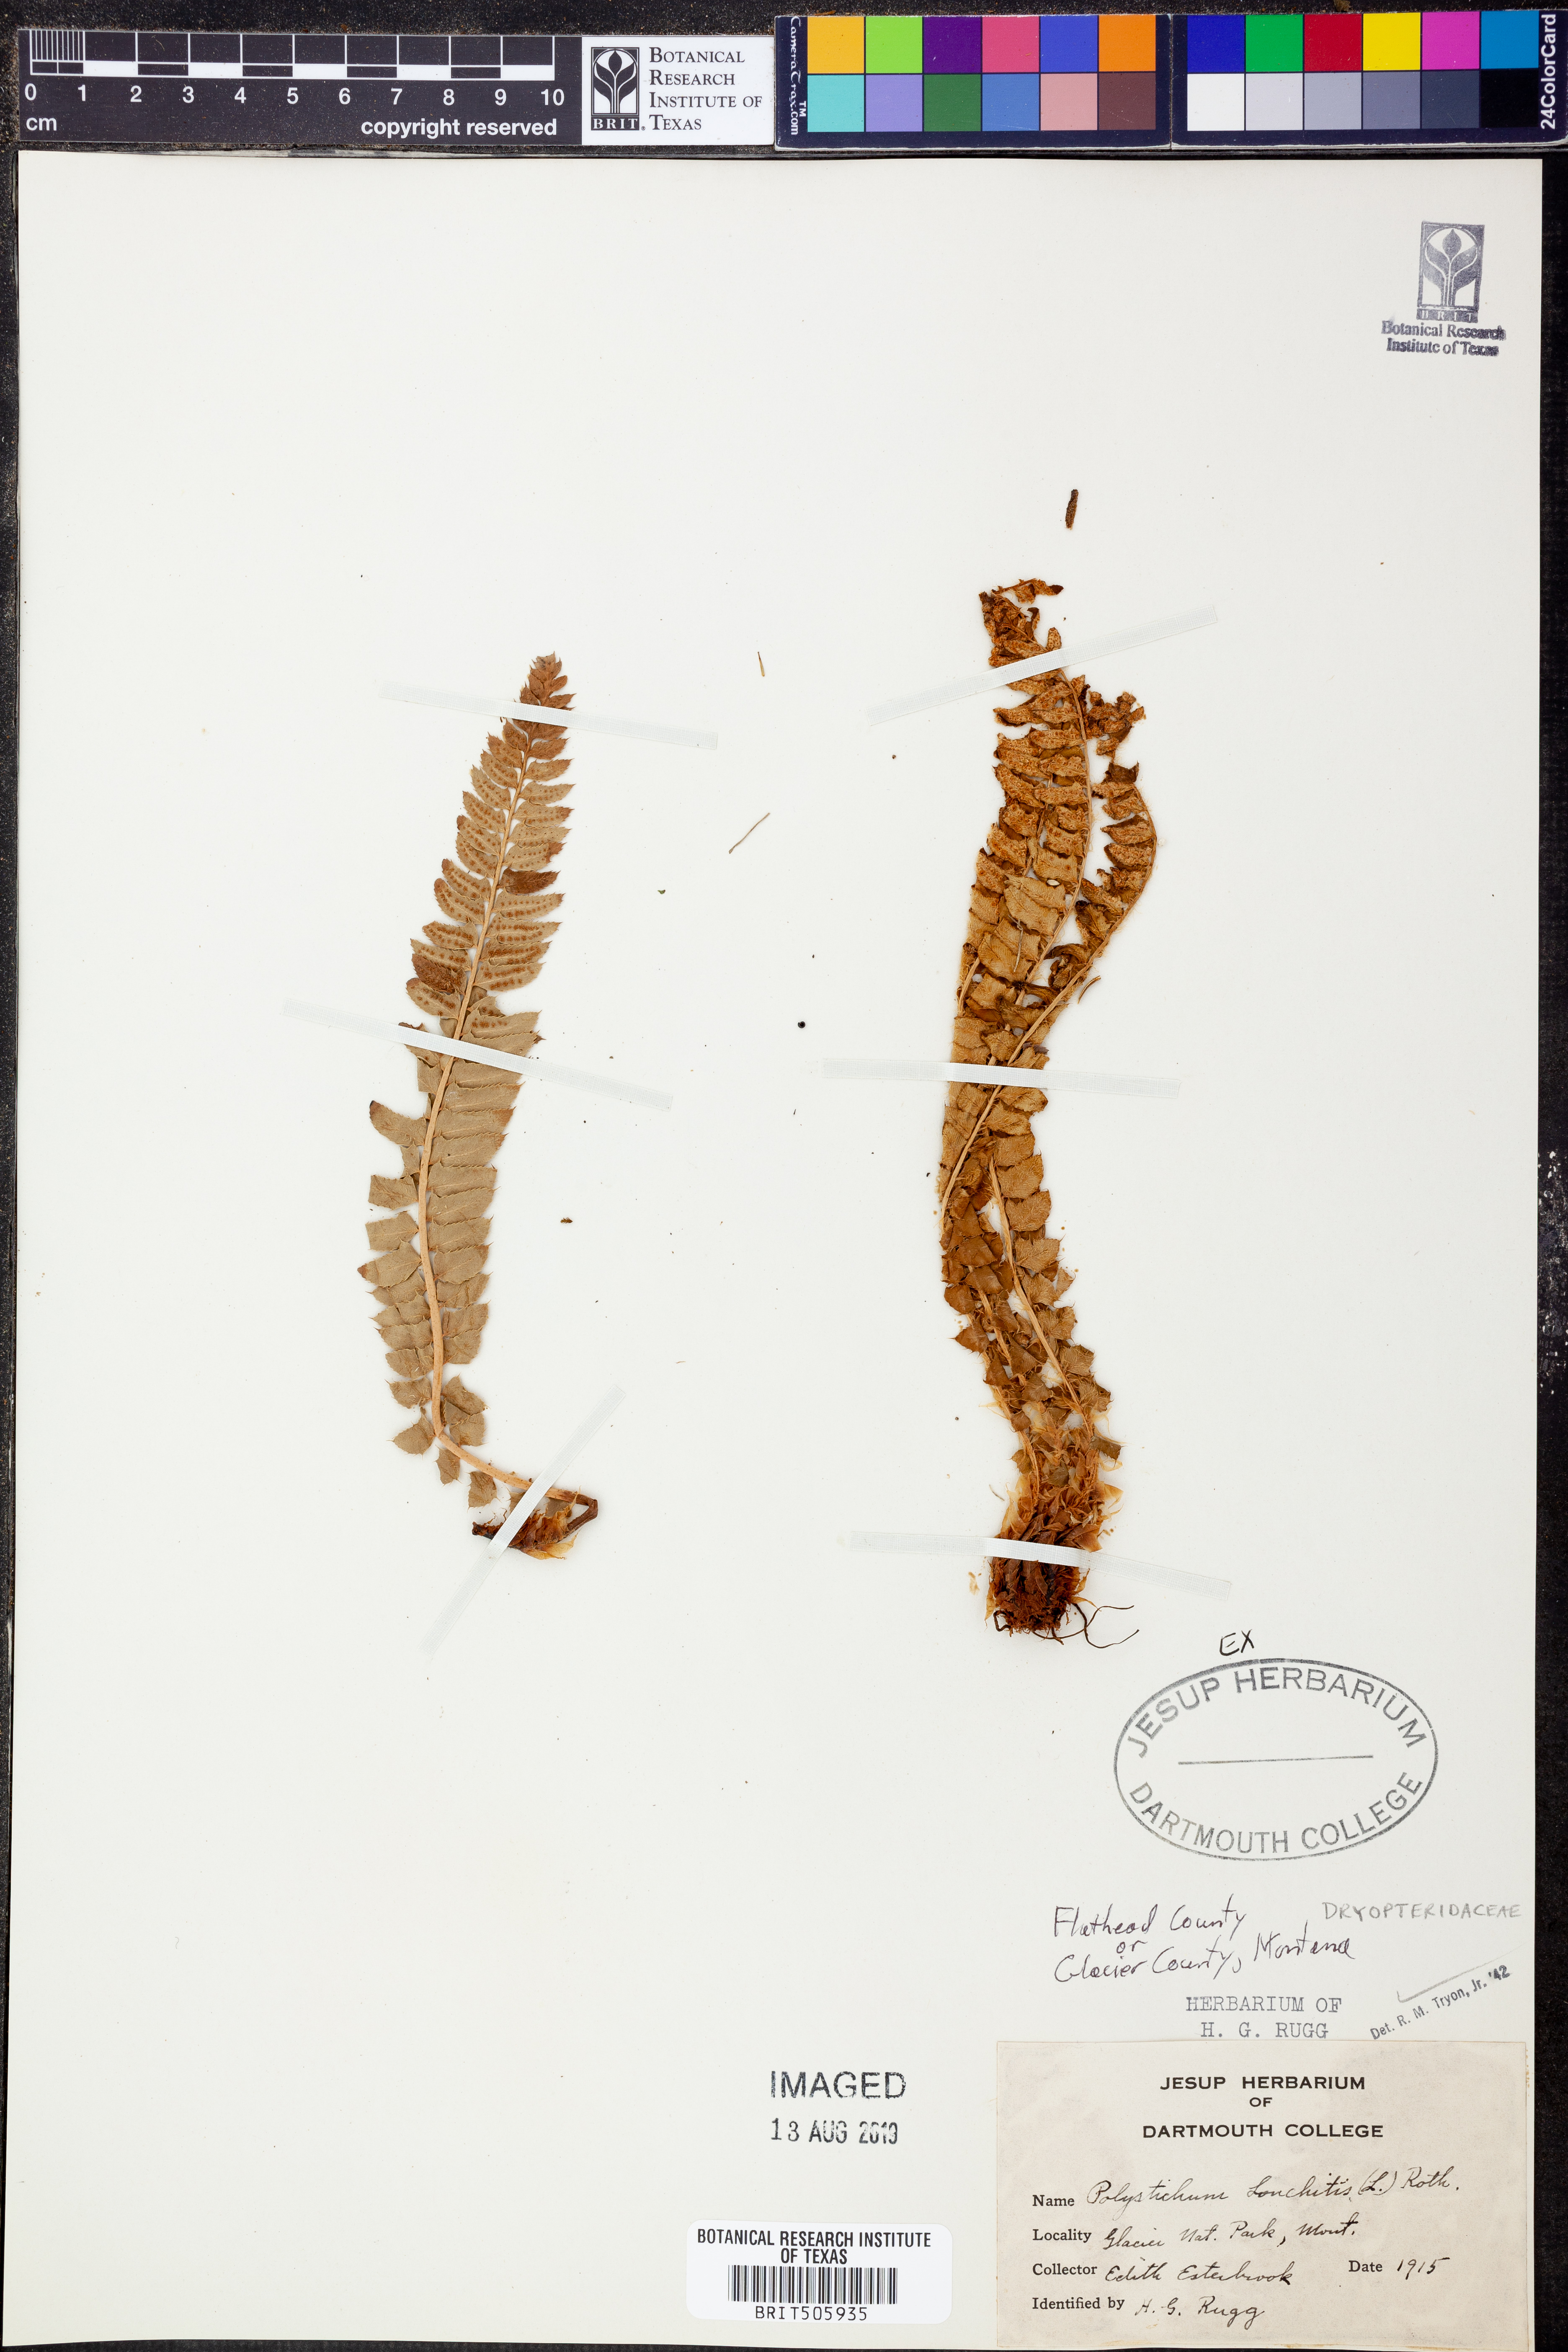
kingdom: Plantae
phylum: Tracheophyta
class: Polypodiopsida
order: Polypodiales
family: Dryopteridaceae
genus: Polystichum
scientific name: Polystichum lonchitis
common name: Holly fern
